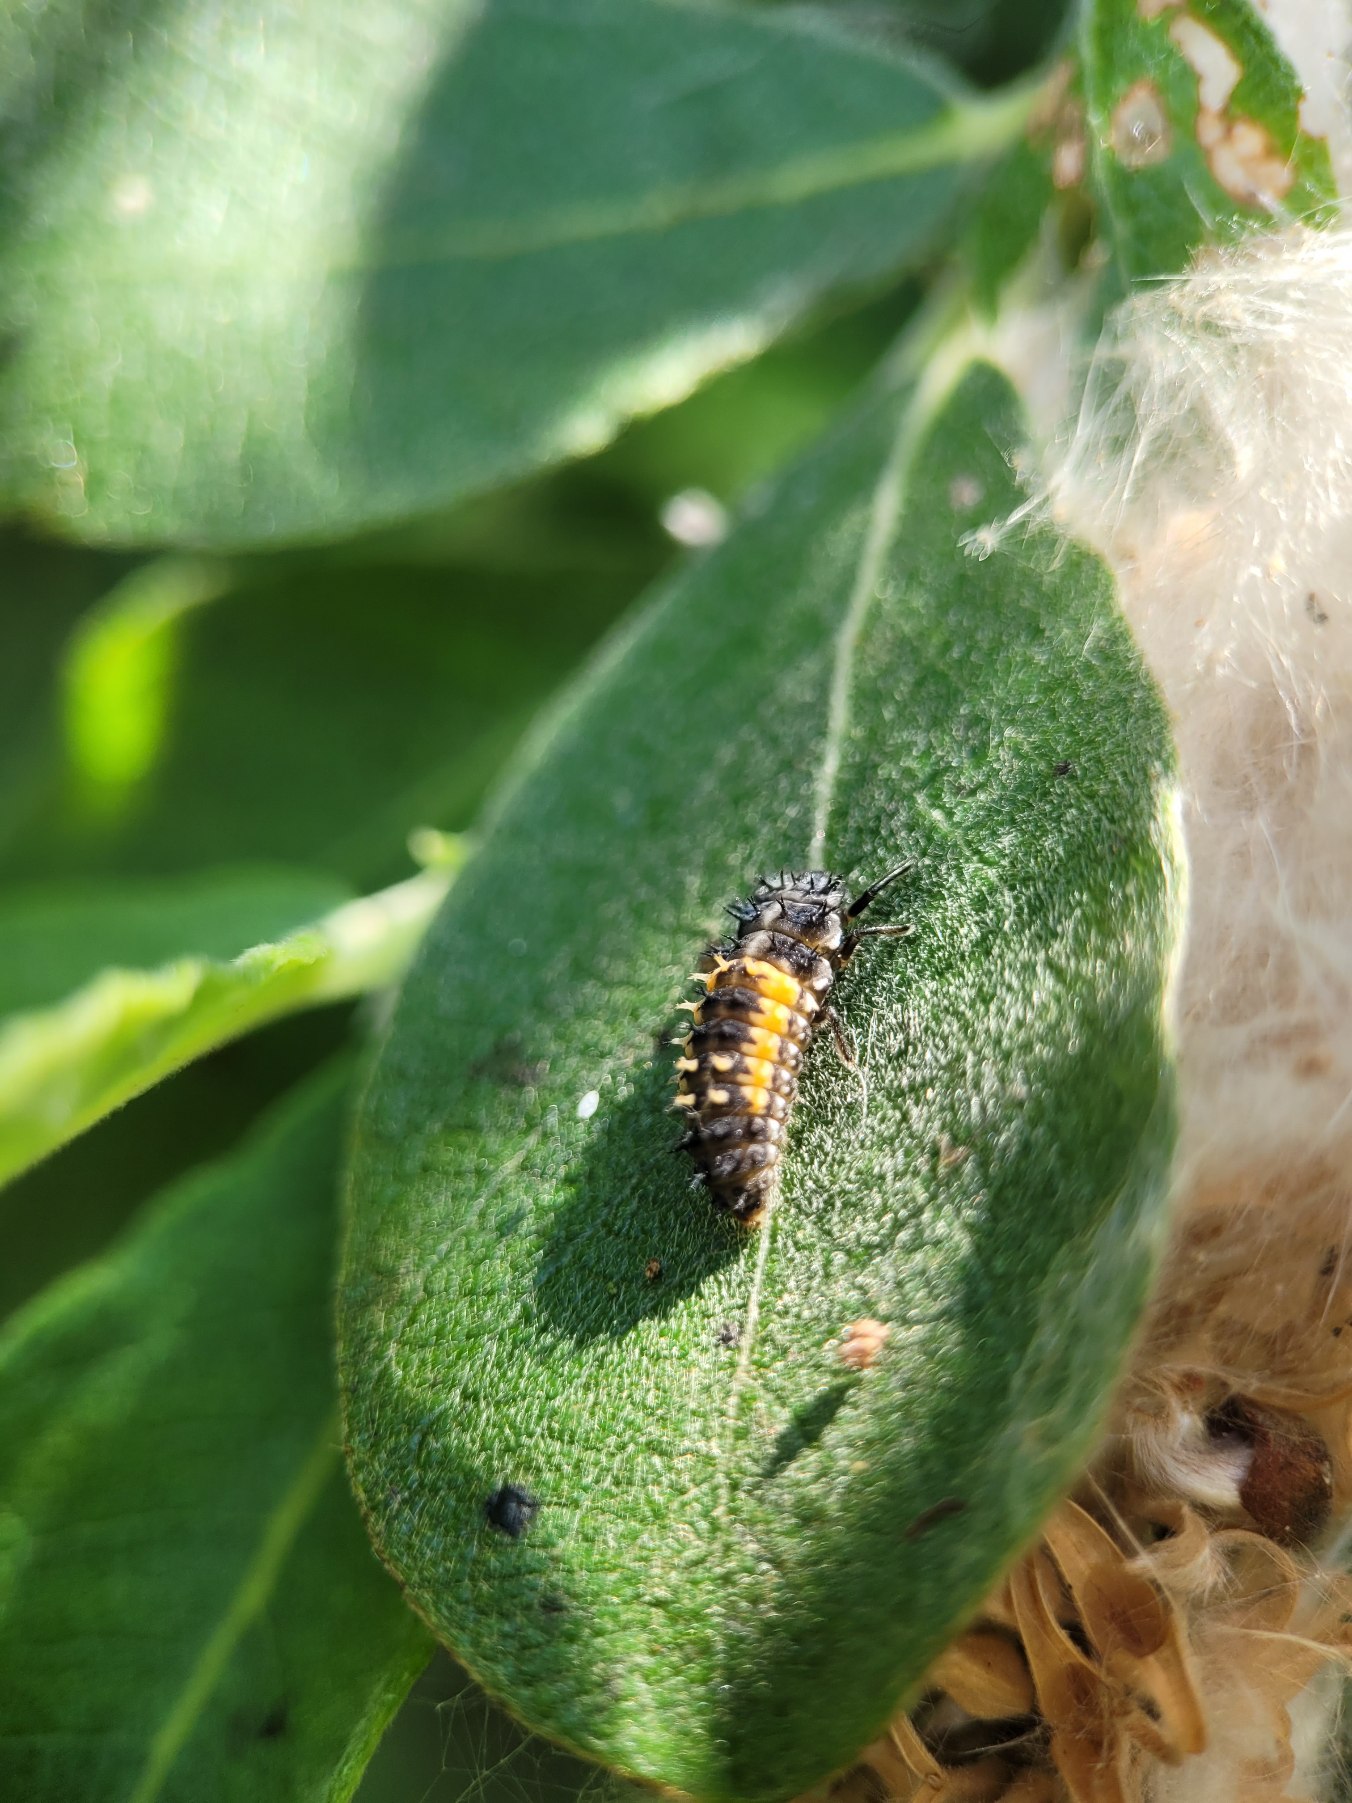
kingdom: Animalia
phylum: Arthropoda
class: Insecta
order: Coleoptera
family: Coccinellidae
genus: Harmonia
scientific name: Harmonia axyridis
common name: Harlekinmariehøne
